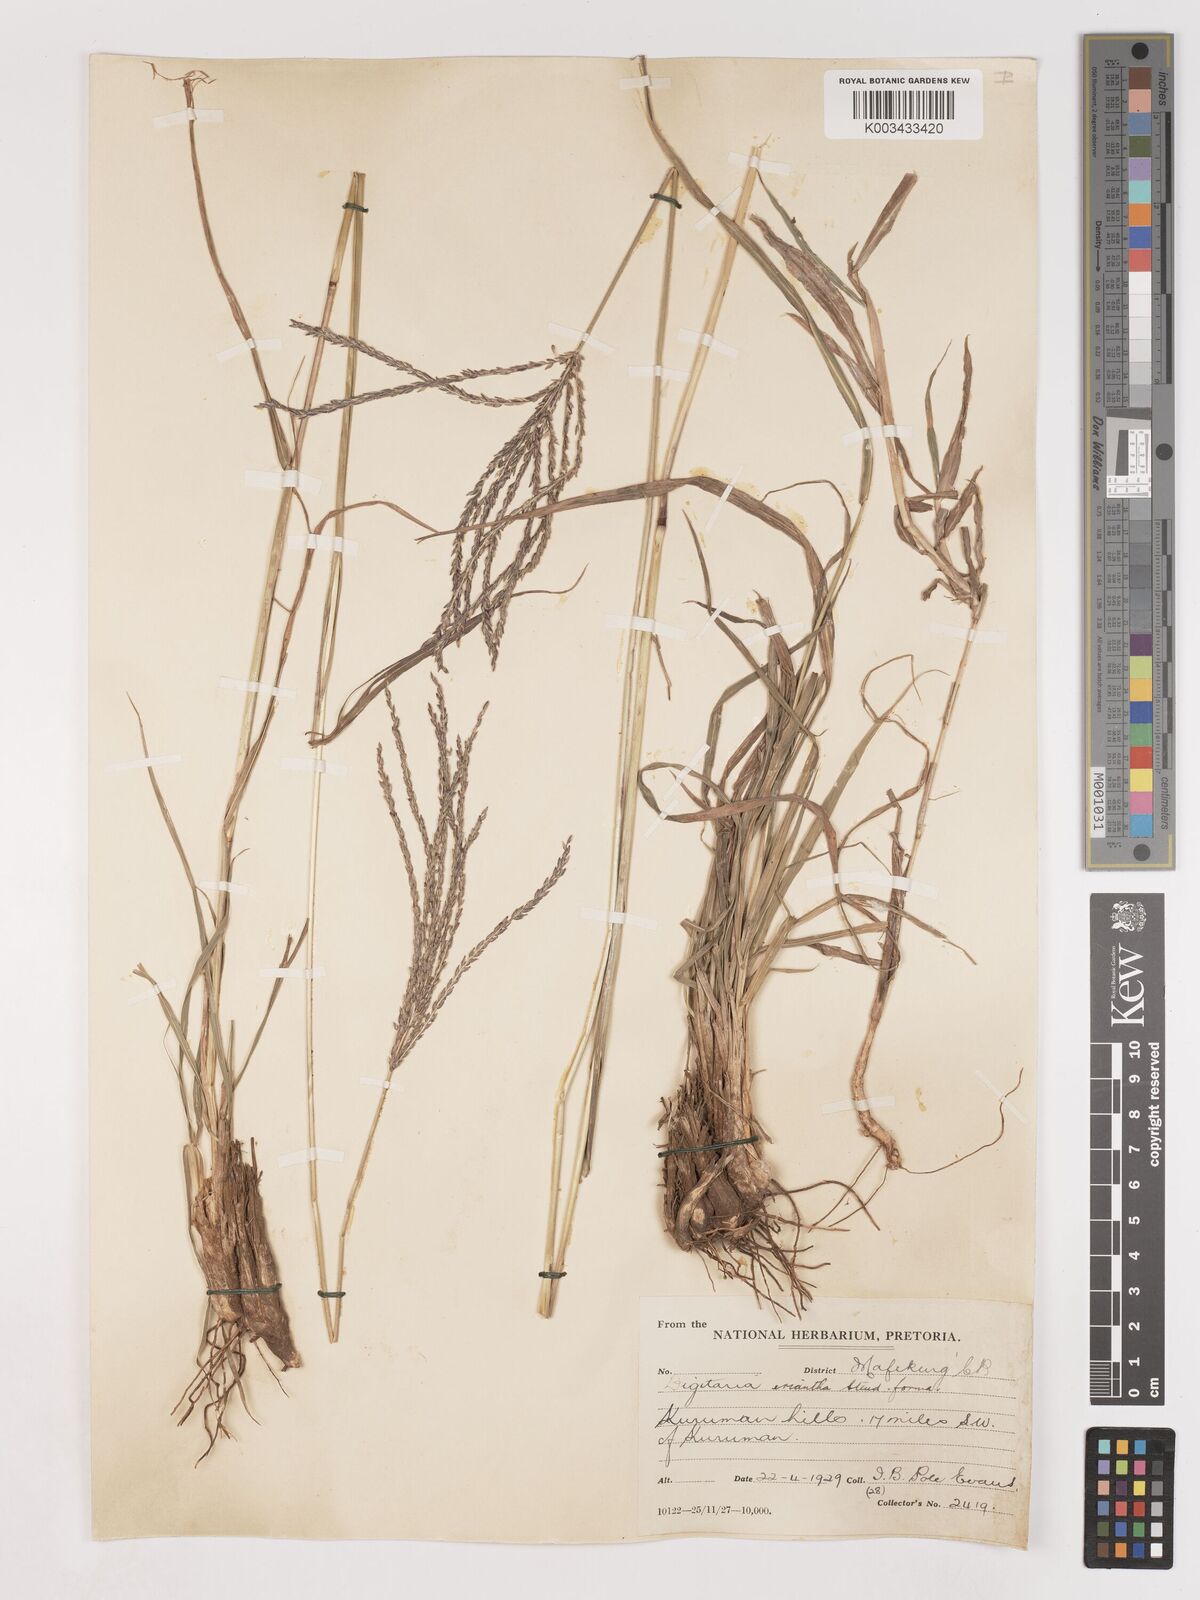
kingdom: Plantae
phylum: Tracheophyta
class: Liliopsida
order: Poales
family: Poaceae
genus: Digitaria
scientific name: Digitaria eriantha
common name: Digitgrass
